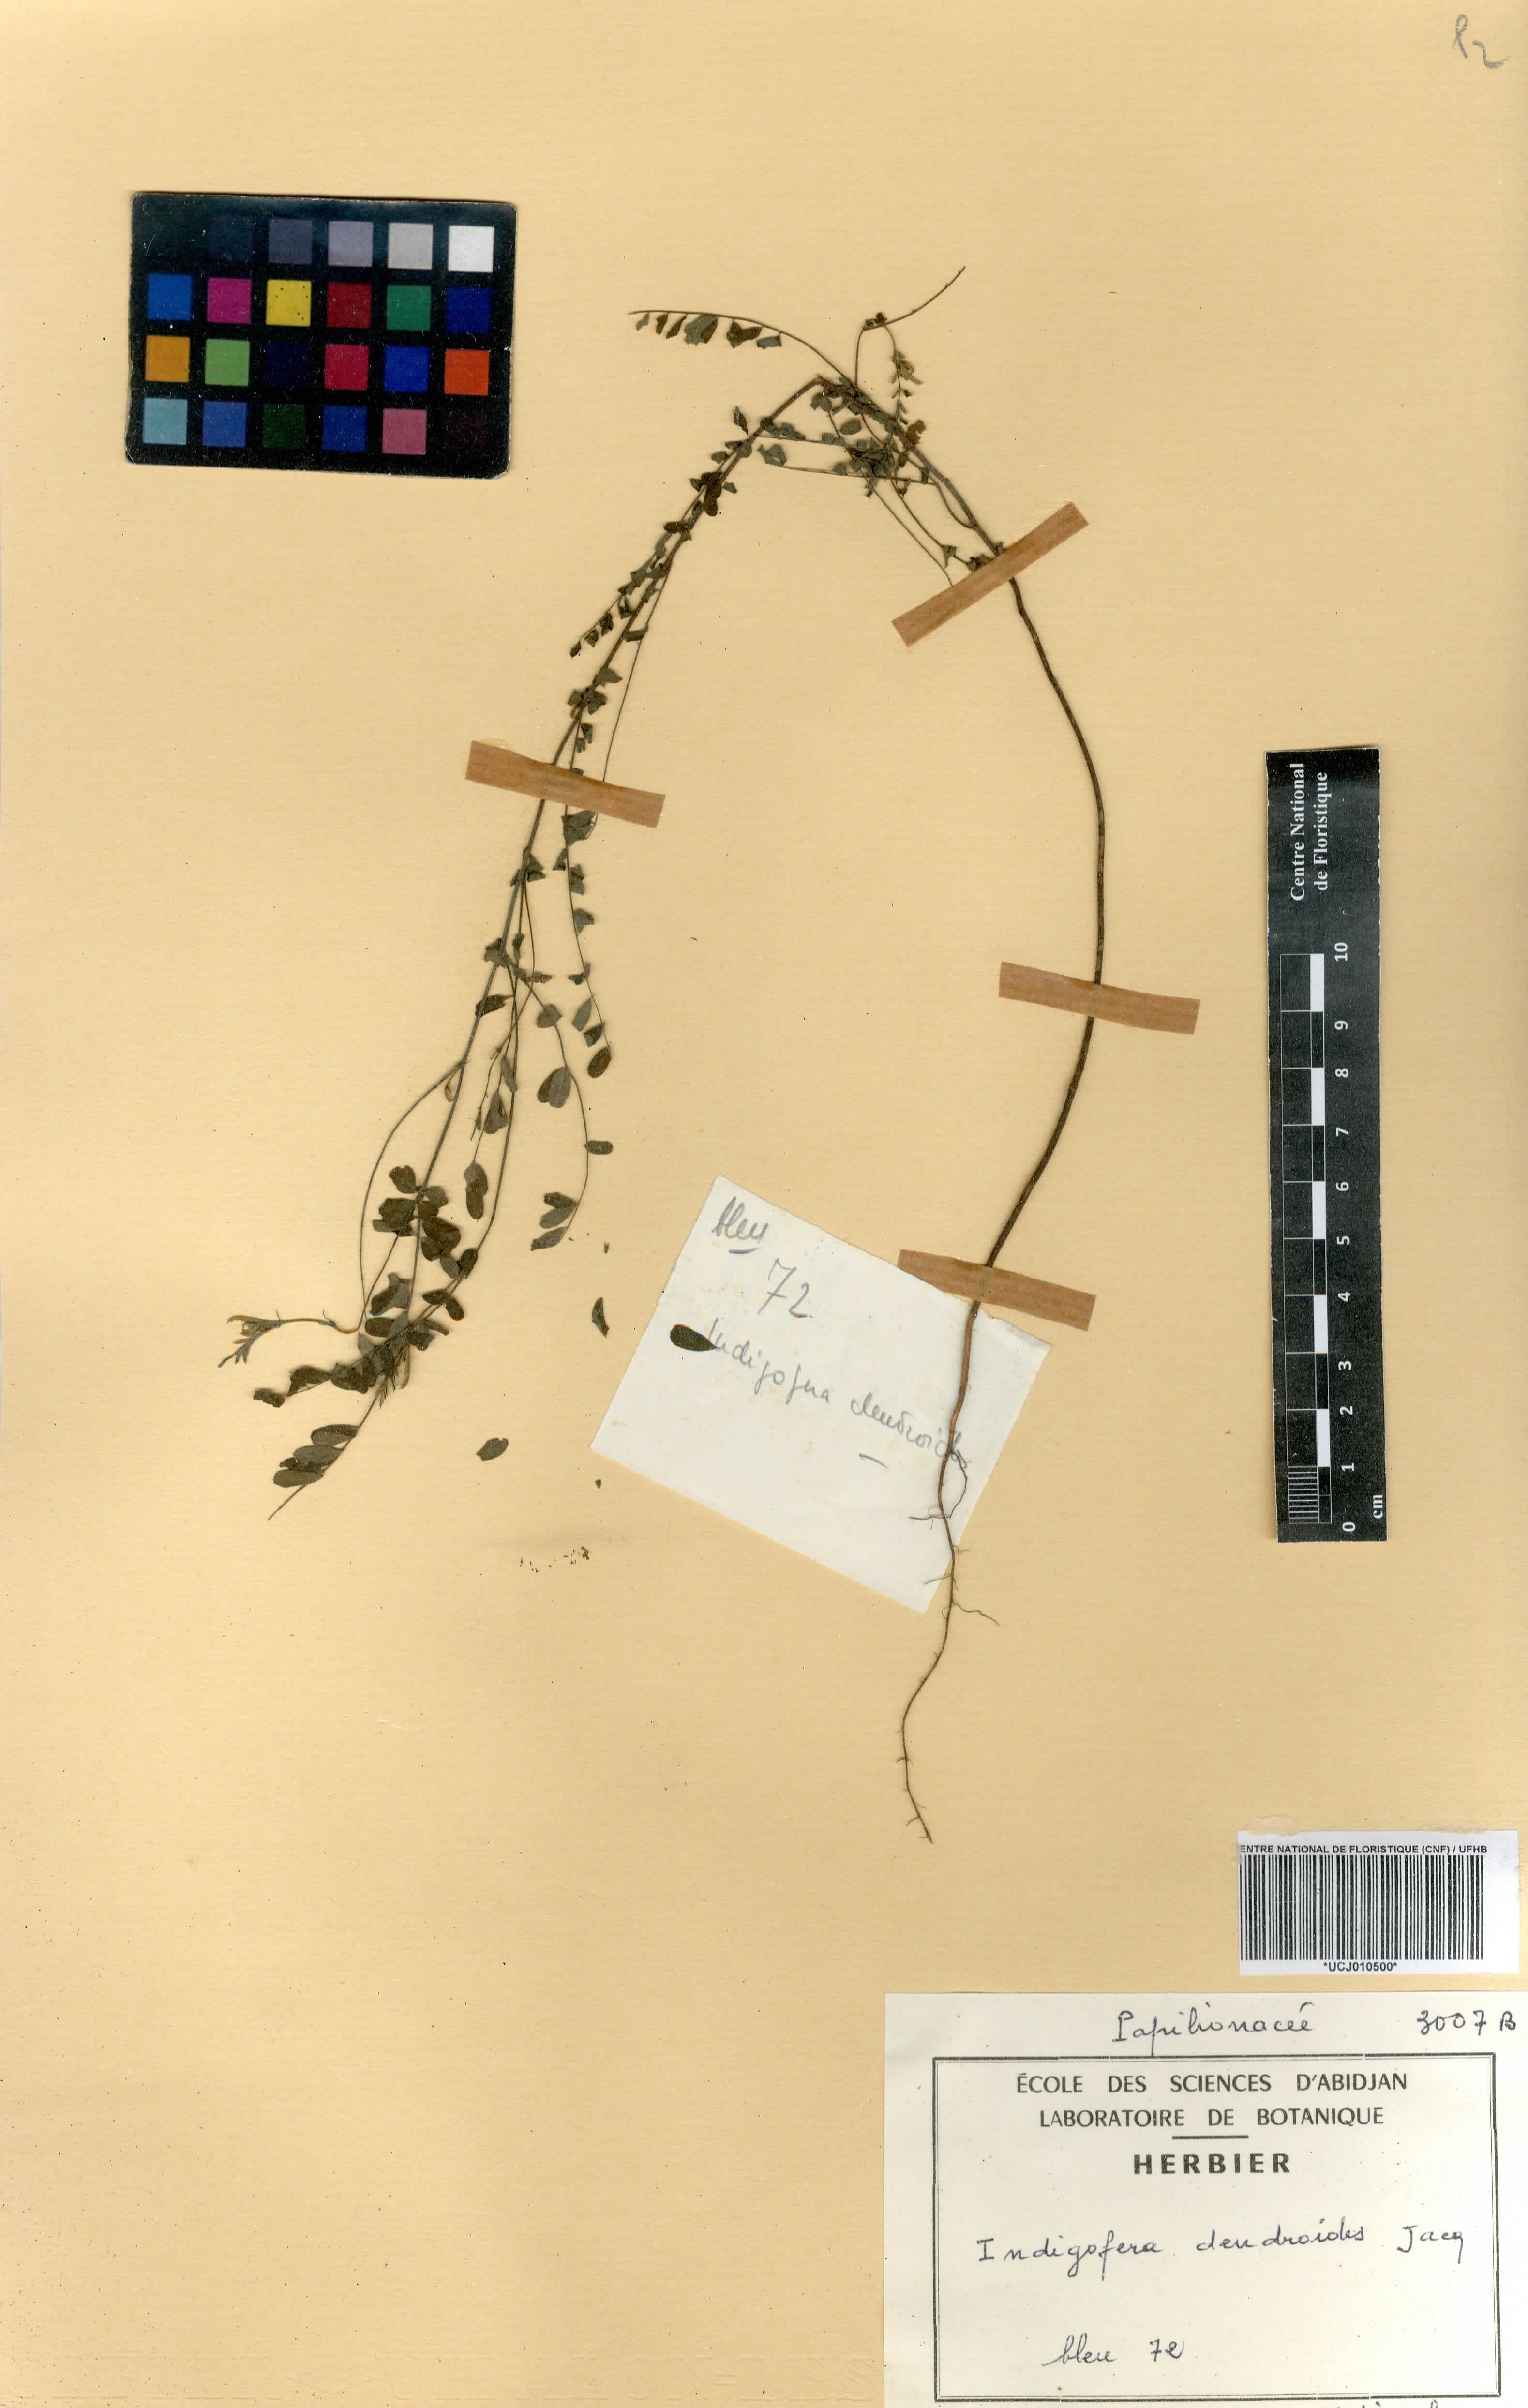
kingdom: Plantae
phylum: Tracheophyta
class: Magnoliopsida
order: Fabales
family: Fabaceae
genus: Indigofera
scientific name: Indigofera dendroides
